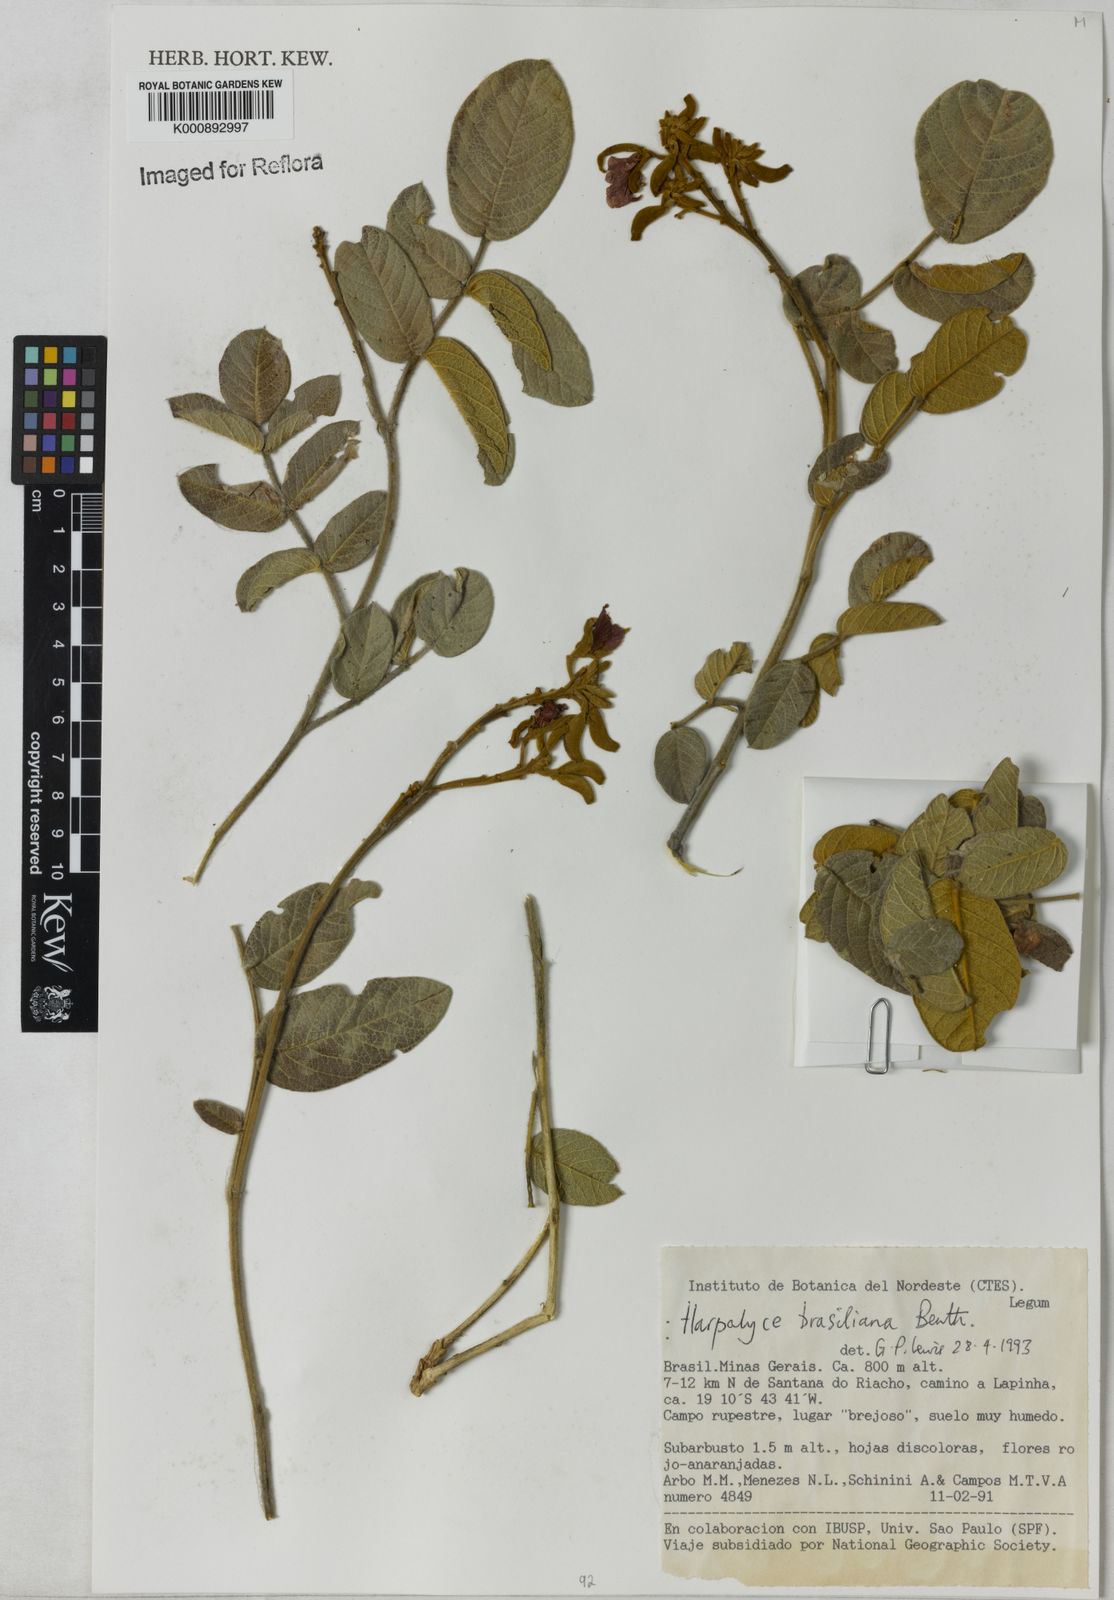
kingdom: Plantae
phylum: Tracheophyta
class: Magnoliopsida
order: Fabales
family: Fabaceae
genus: Harpalyce
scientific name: Harpalyce brasiliana
